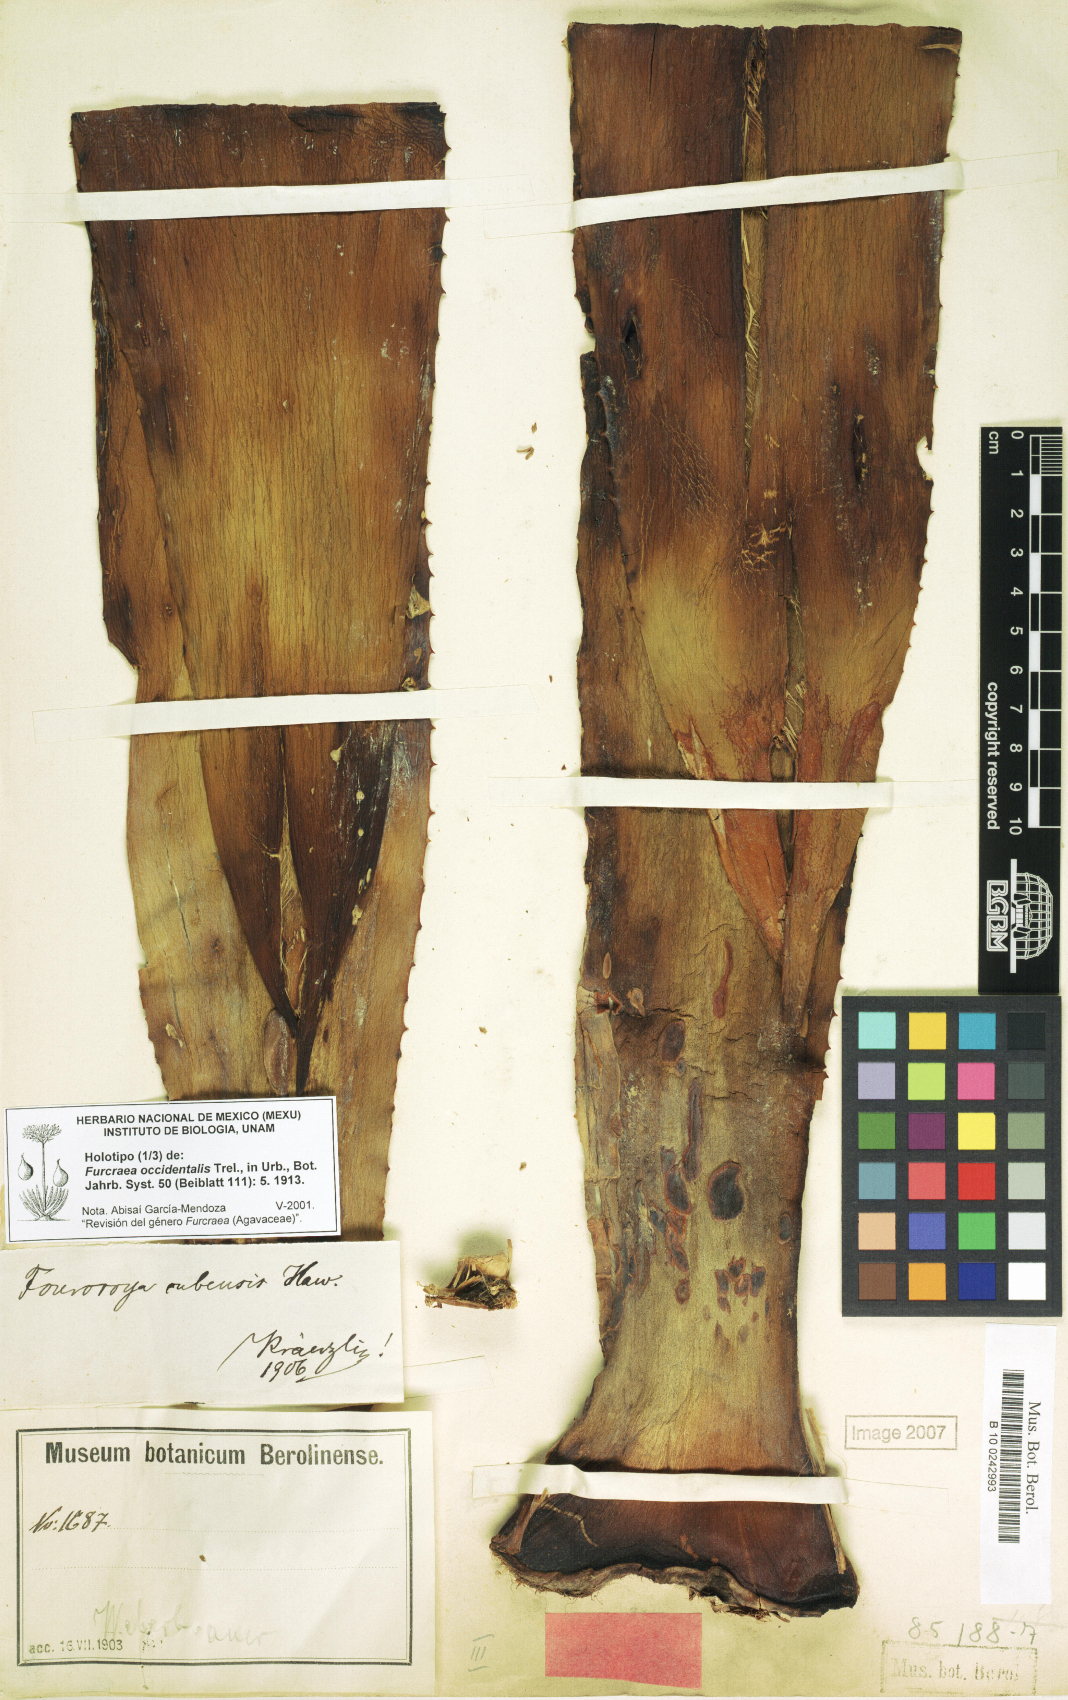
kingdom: Plantae
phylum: Tracheophyta
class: Liliopsida
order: Asparagales
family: Asparagaceae
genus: Furcraea
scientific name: Furcraea occidentalis
